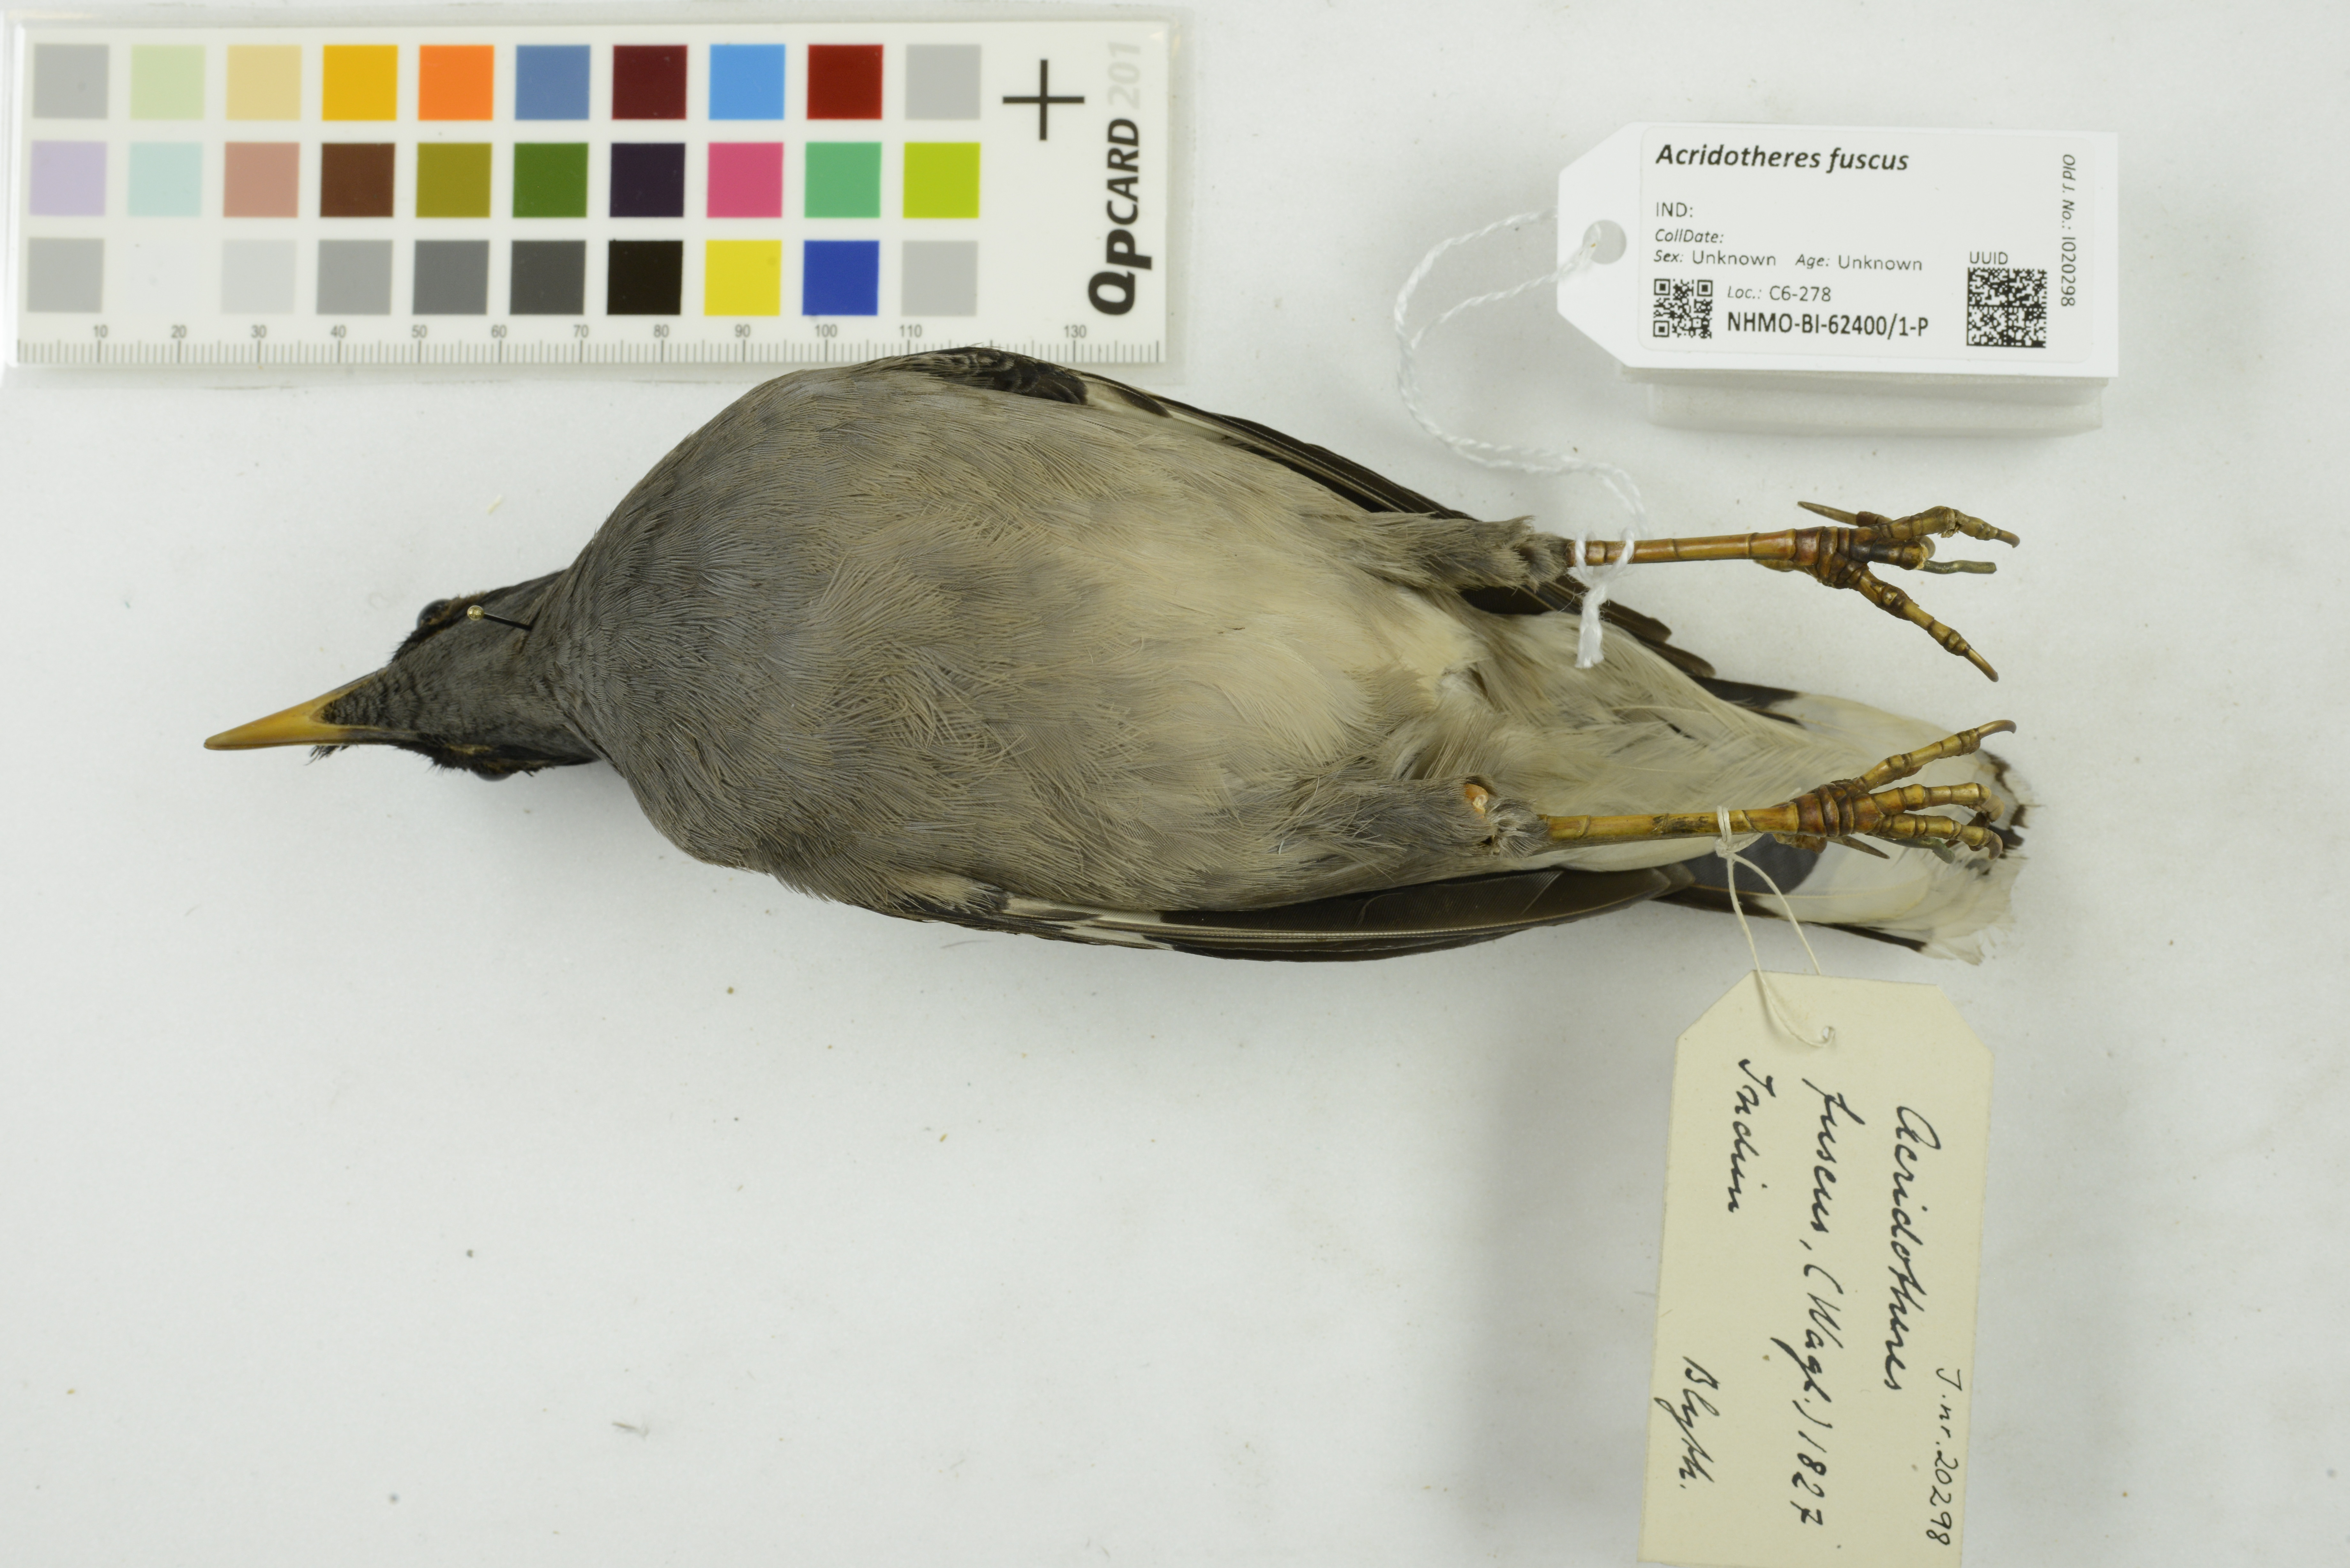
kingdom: Animalia
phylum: Chordata
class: Aves
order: Passeriformes
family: Sturnidae
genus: Acridotheres
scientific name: Acridotheres fuscus
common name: Jungle myna
